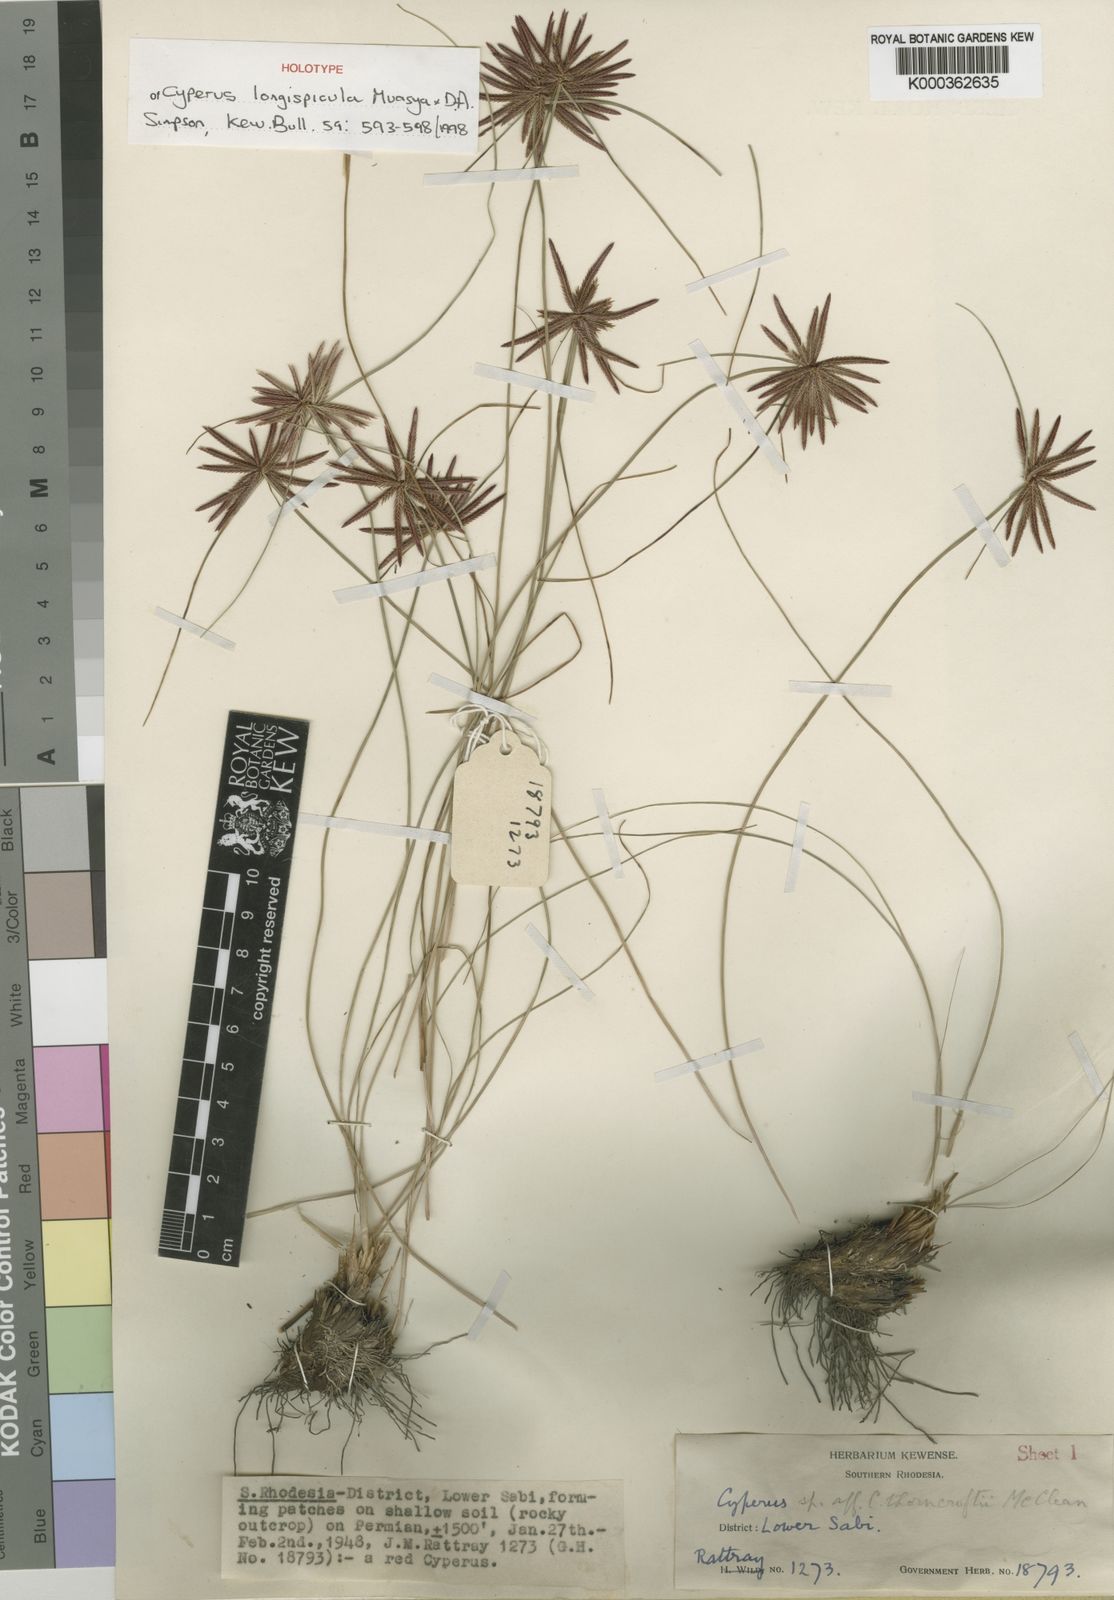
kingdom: Plantae
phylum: Tracheophyta
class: Liliopsida
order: Poales
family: Cyperaceae
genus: Cyperus
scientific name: Cyperus longispicula
